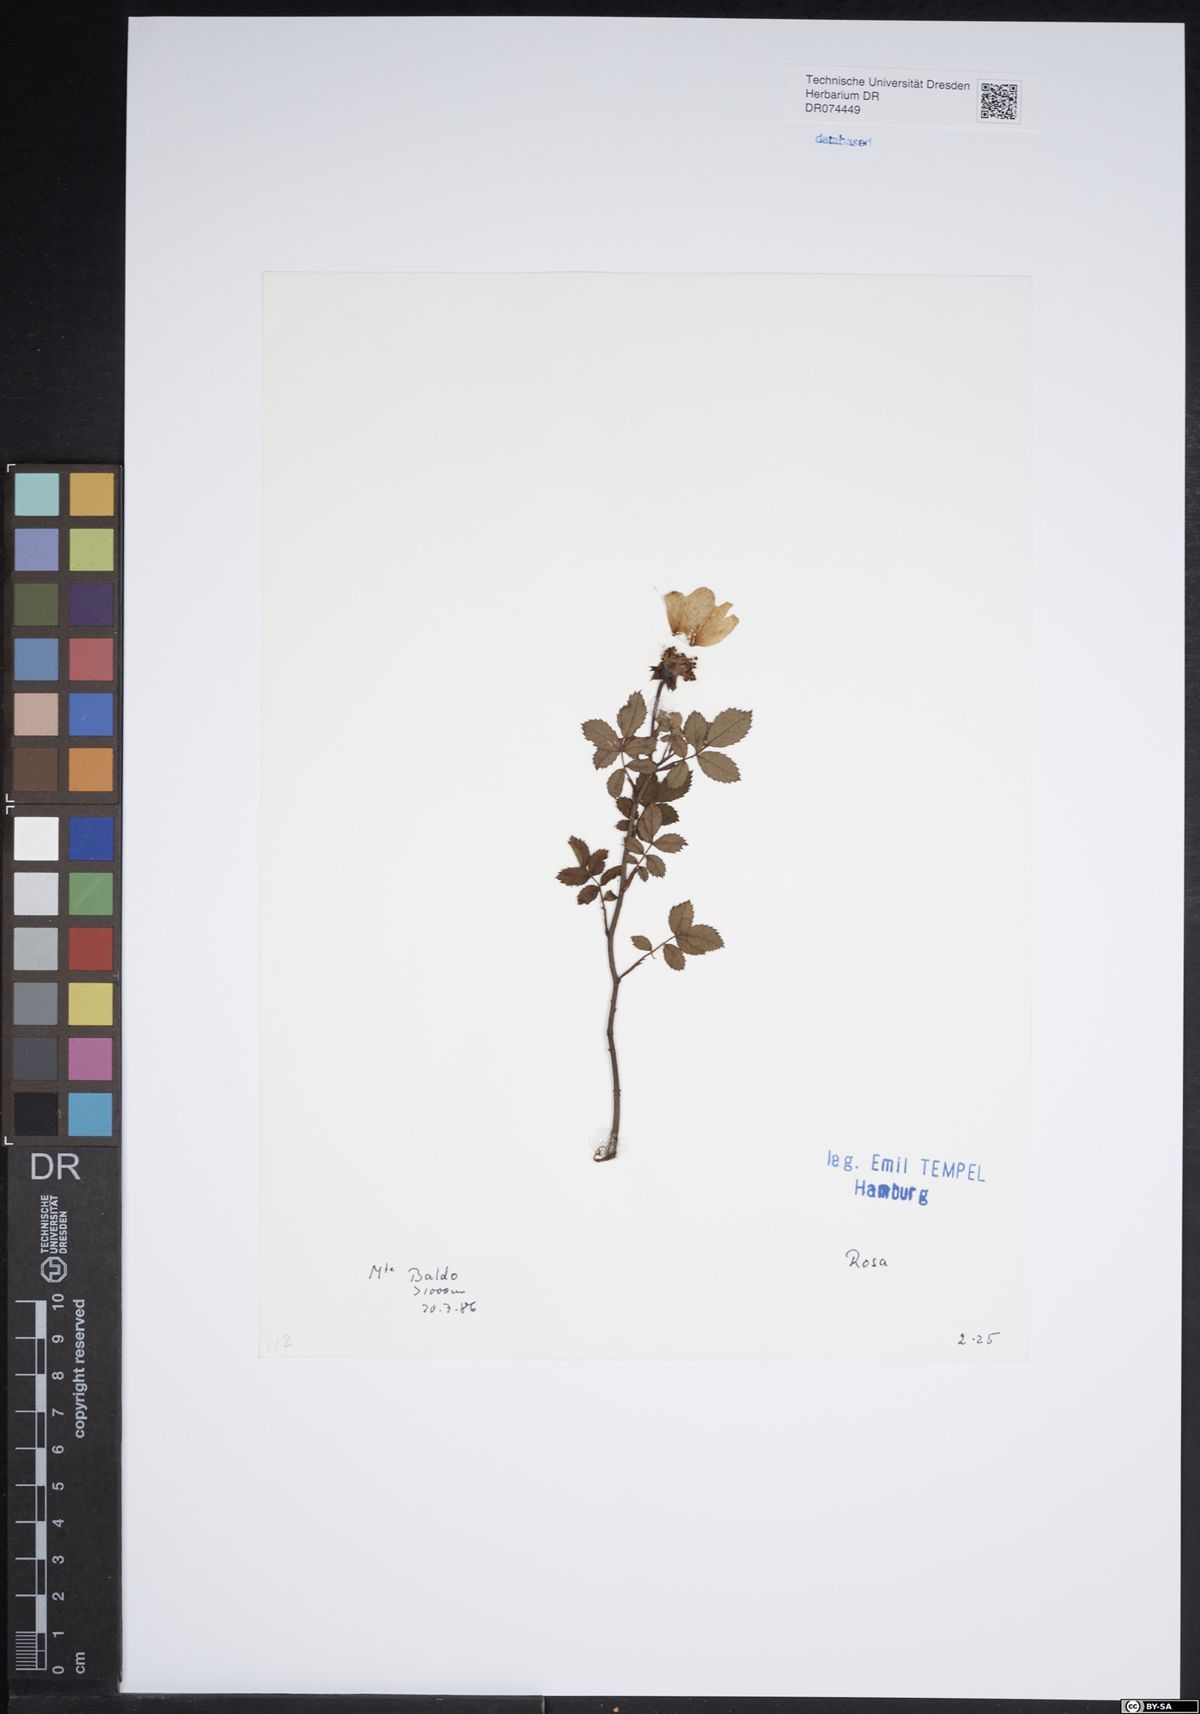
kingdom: Plantae
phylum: Tracheophyta
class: Magnoliopsida
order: Rosales
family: Rosaceae
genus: Rosa
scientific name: Rosa
